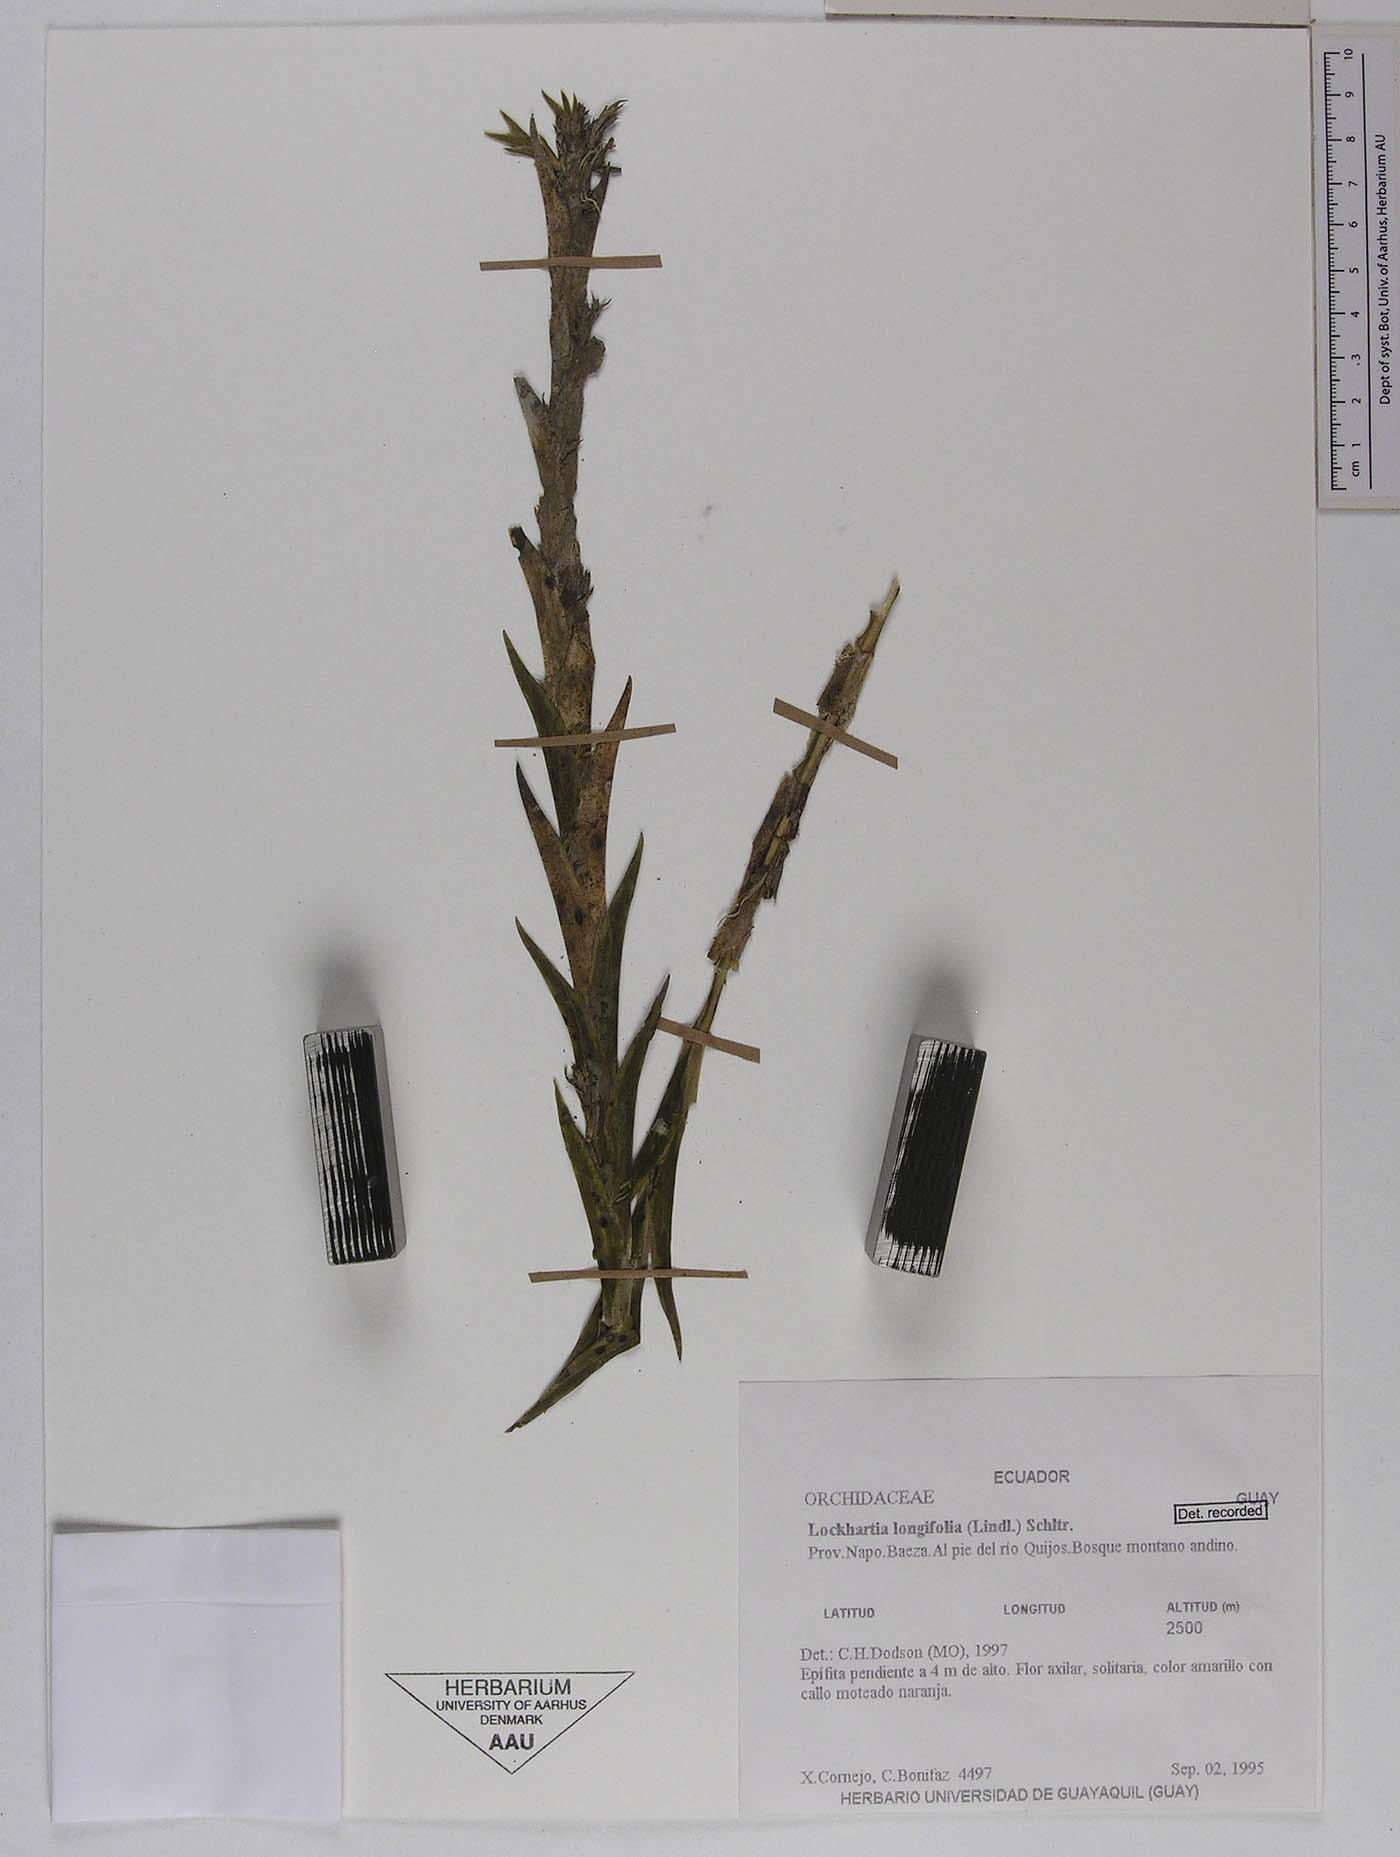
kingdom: Plantae
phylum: Tracheophyta
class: Liliopsida
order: Asparagales
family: Orchidaceae
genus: Lockhartia
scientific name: Lockhartia longifolia
